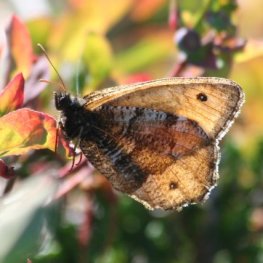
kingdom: Animalia
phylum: Arthropoda
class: Insecta
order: Lepidoptera
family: Nymphalidae
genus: Oeneis
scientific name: Oeneis nevadensis
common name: Great Arctic
